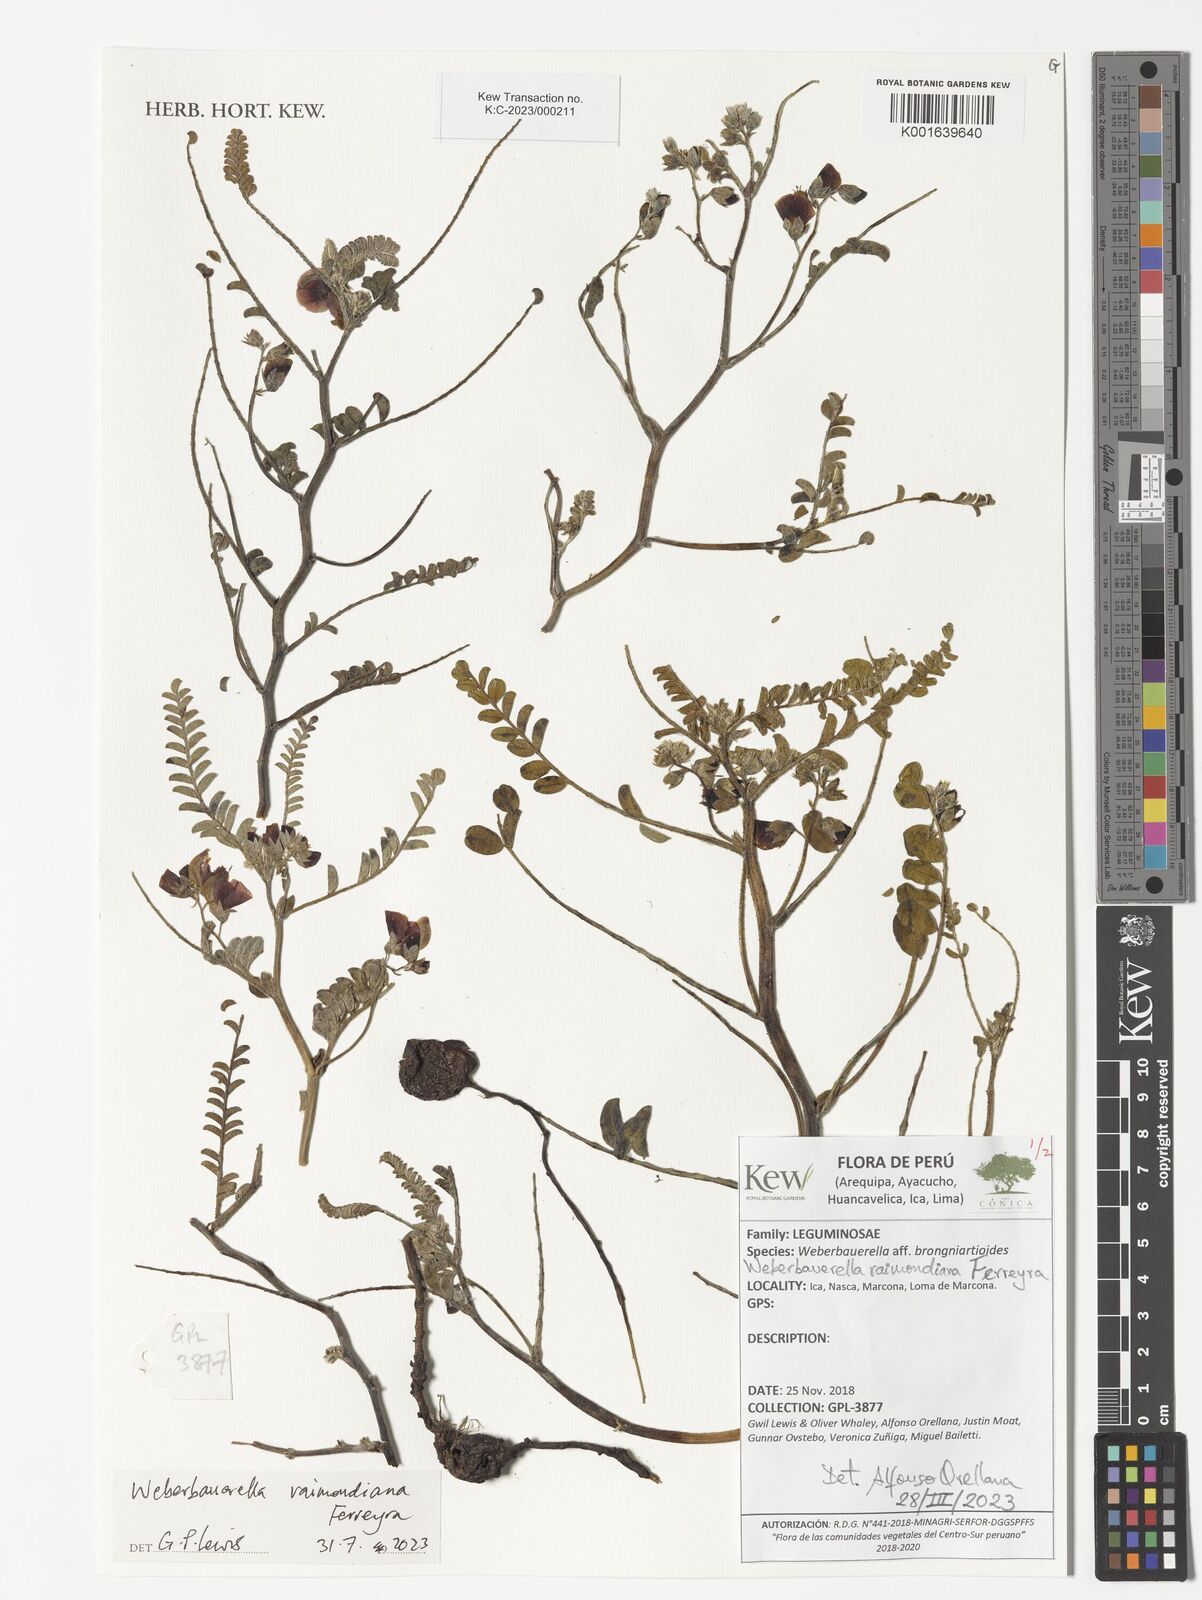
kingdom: Plantae
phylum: Tracheophyta
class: Magnoliopsida
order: Fabales
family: Fabaceae
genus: Weberbauerella
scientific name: Weberbauerella raimondiana
